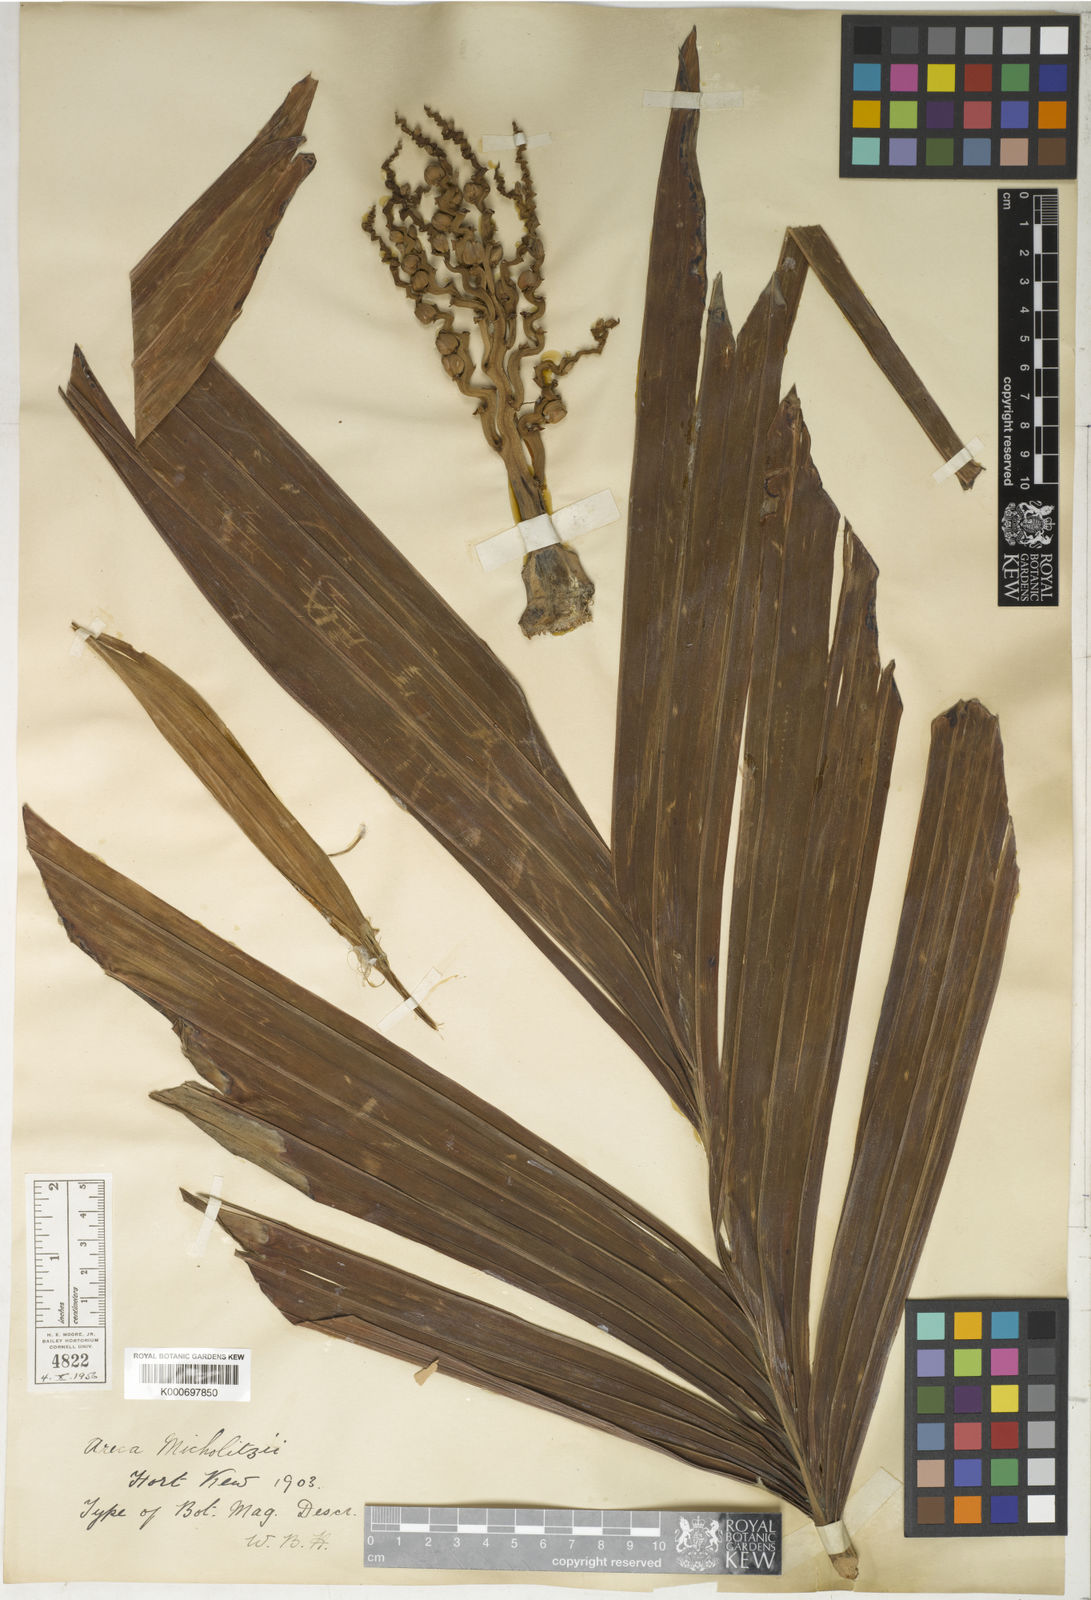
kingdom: Plantae
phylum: Tracheophyta
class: Liliopsida
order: Arecales
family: Arecaceae
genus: Areca
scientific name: Areca vestiaria
